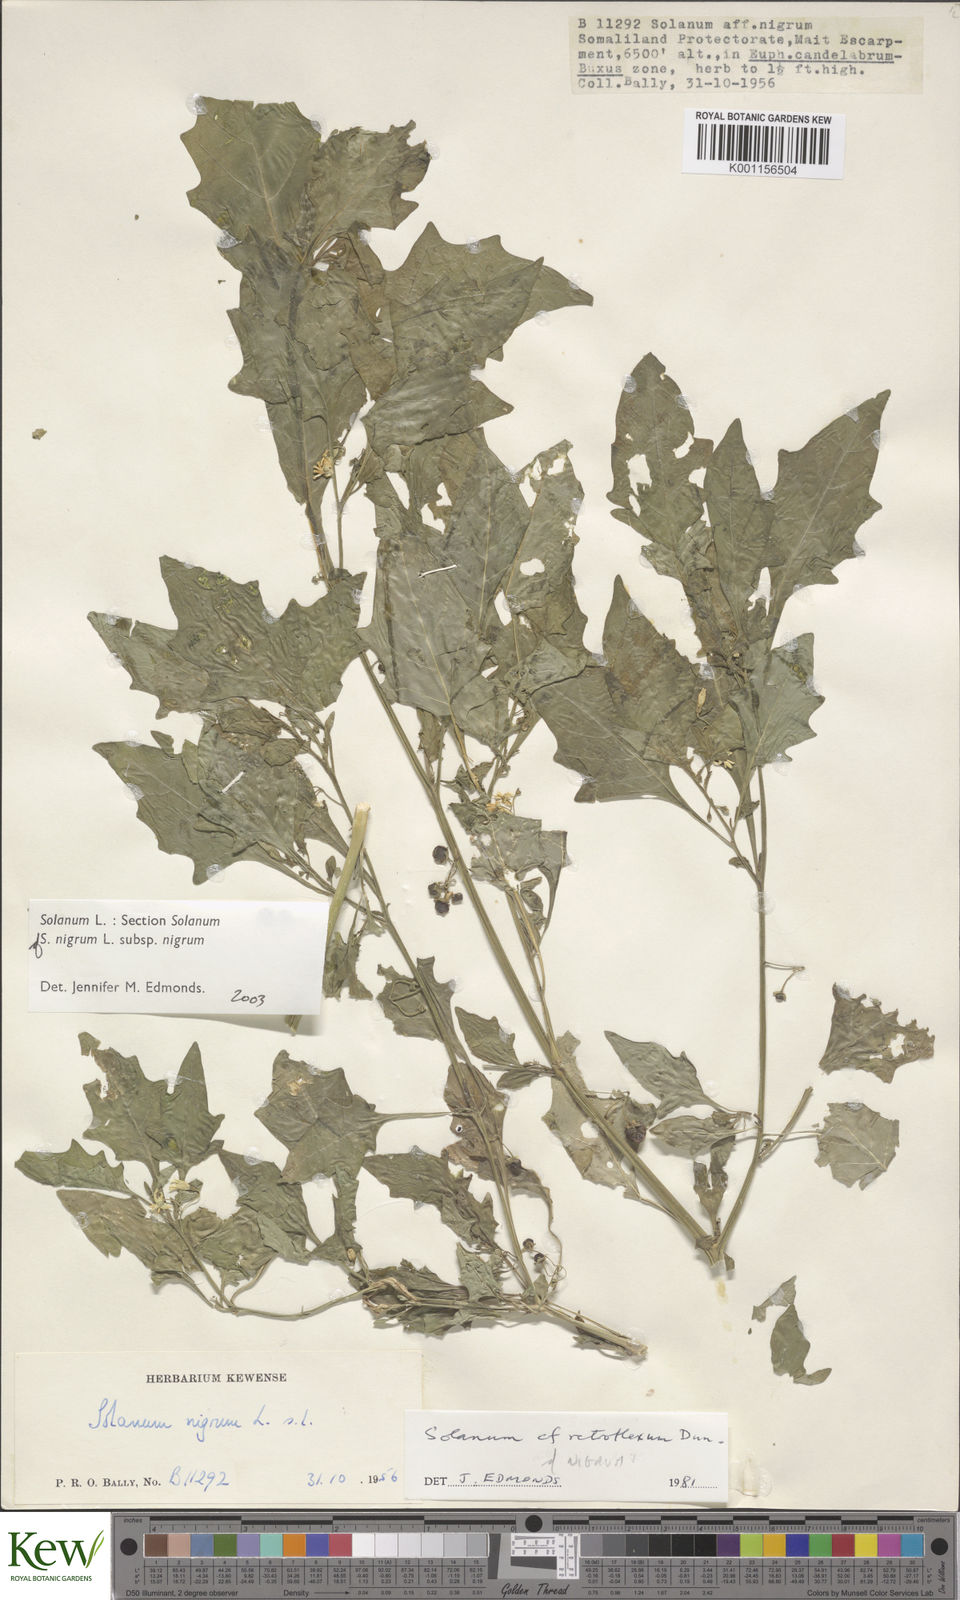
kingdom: Plantae
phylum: Tracheophyta
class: Magnoliopsida
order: Solanales
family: Solanaceae
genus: Solanum
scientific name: Solanum tarderemotum
